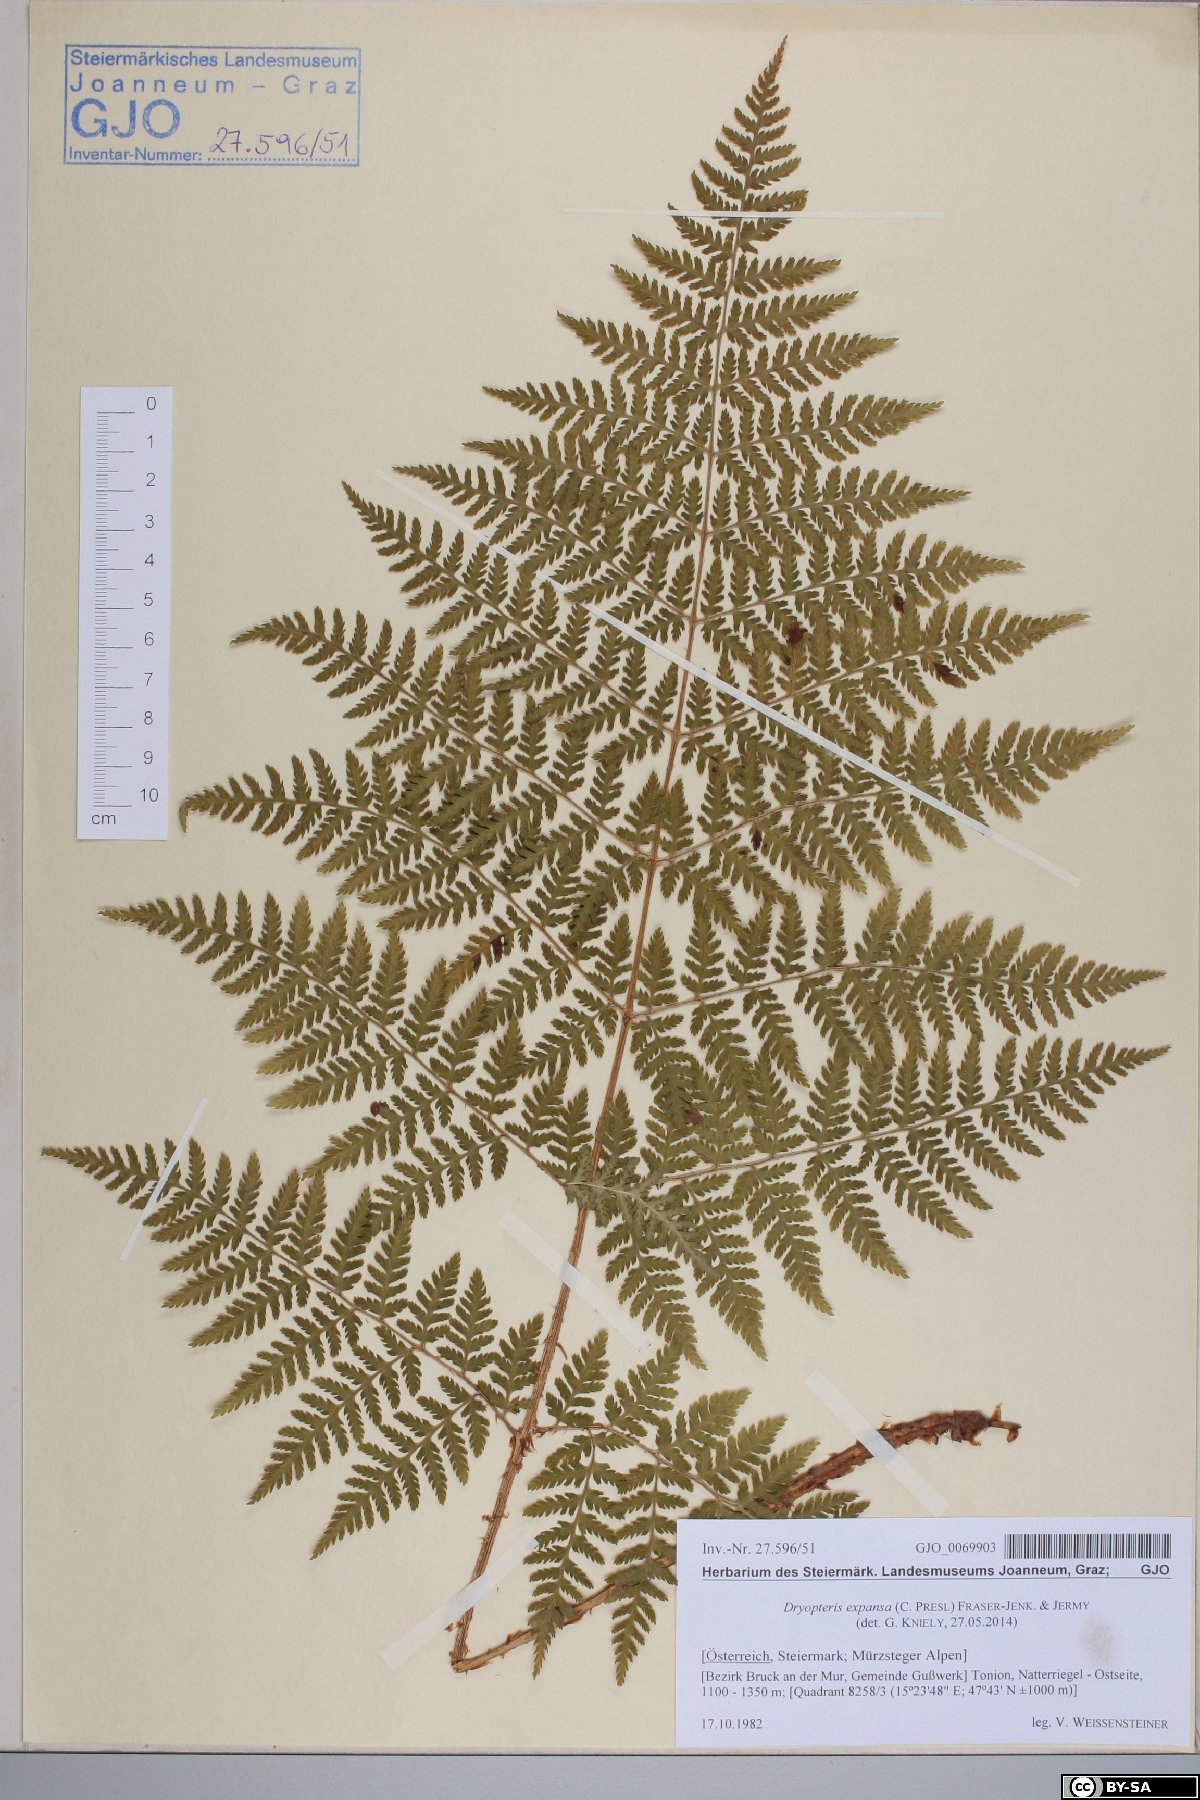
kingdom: Plantae
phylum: Tracheophyta
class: Polypodiopsida
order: Polypodiales
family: Dryopteridaceae
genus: Dryopteris
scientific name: Dryopteris expansa
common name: Northern buckler fern
